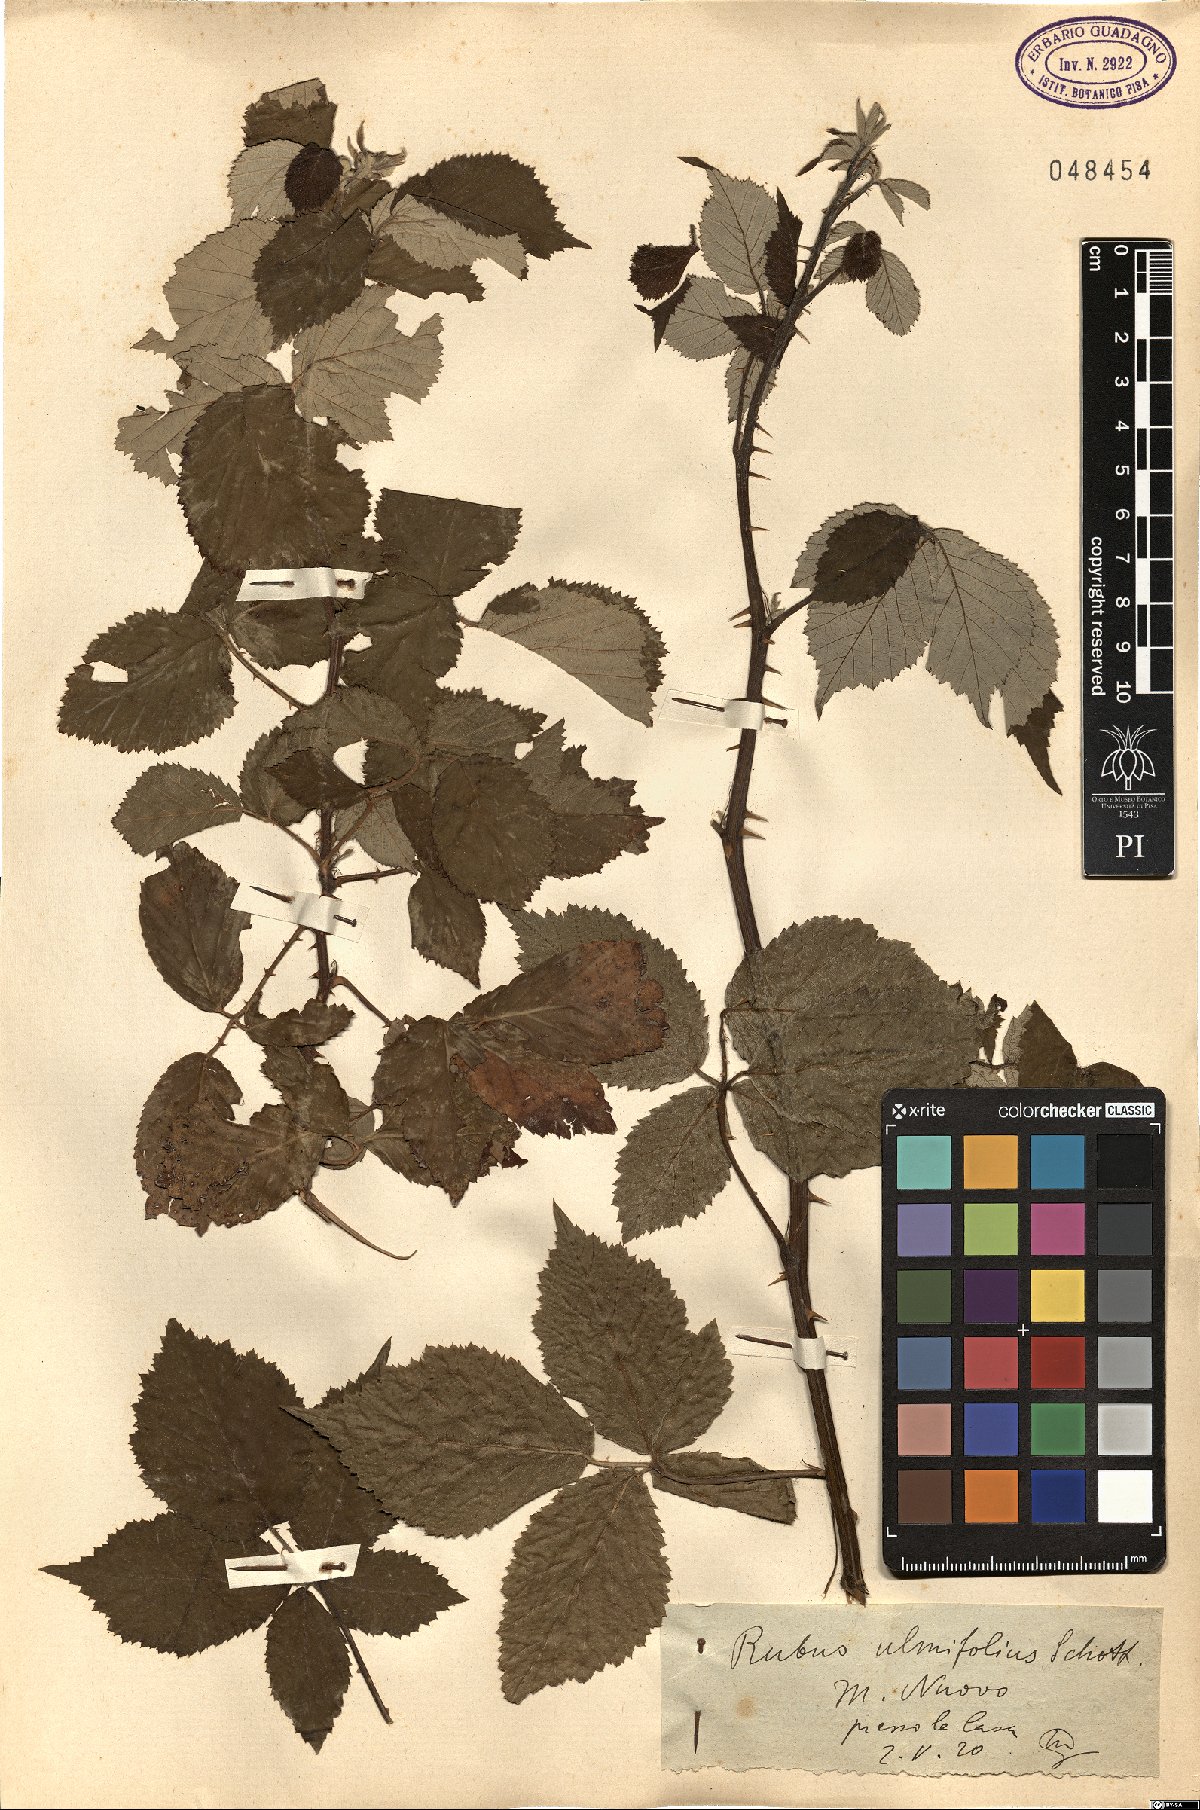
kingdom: Plantae
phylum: Tracheophyta
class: Magnoliopsida
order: Rosales
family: Rosaceae
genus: Rubus
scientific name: Rubus ulmifolius
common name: Elmleaf blackberry
